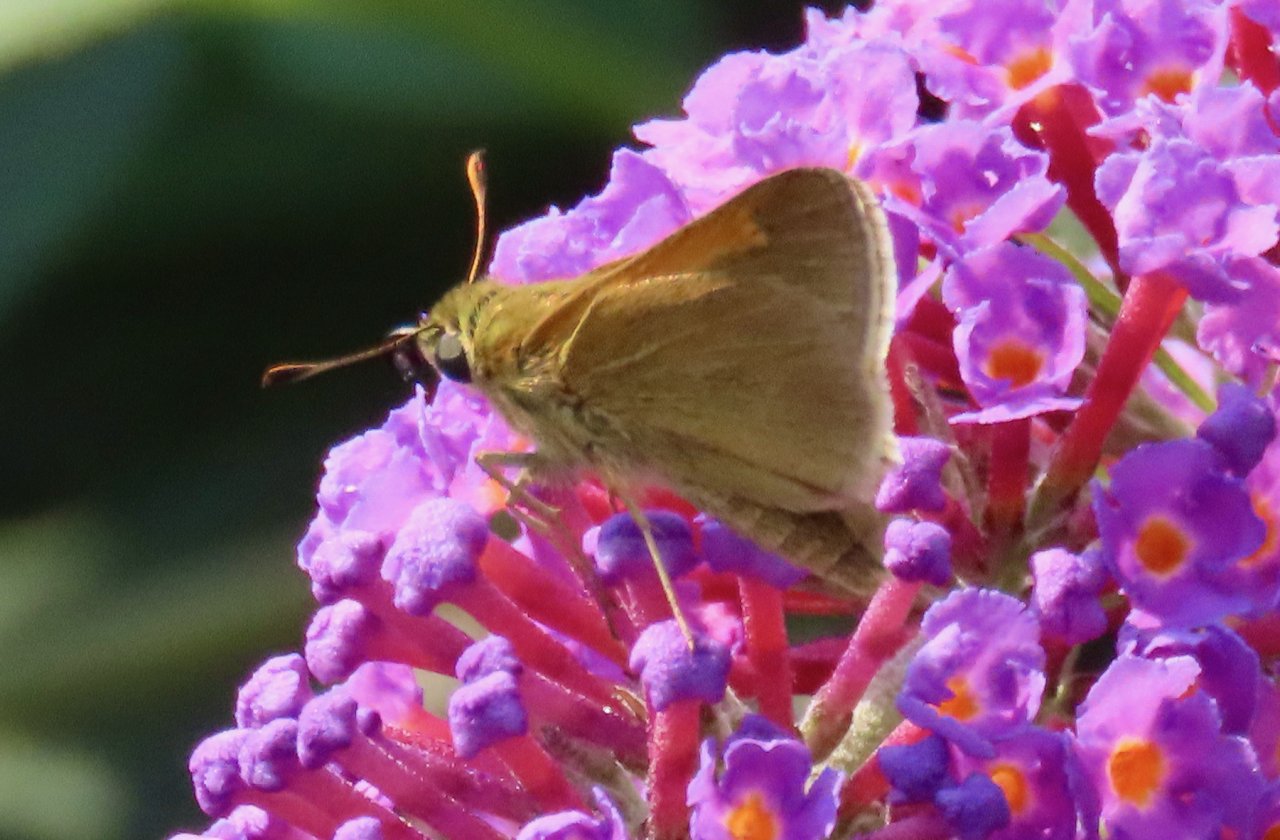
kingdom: Animalia
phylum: Arthropoda
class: Insecta
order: Lepidoptera
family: Hesperiidae
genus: Polites
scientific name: Polites themistocles
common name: Tawny-edged Skipper
